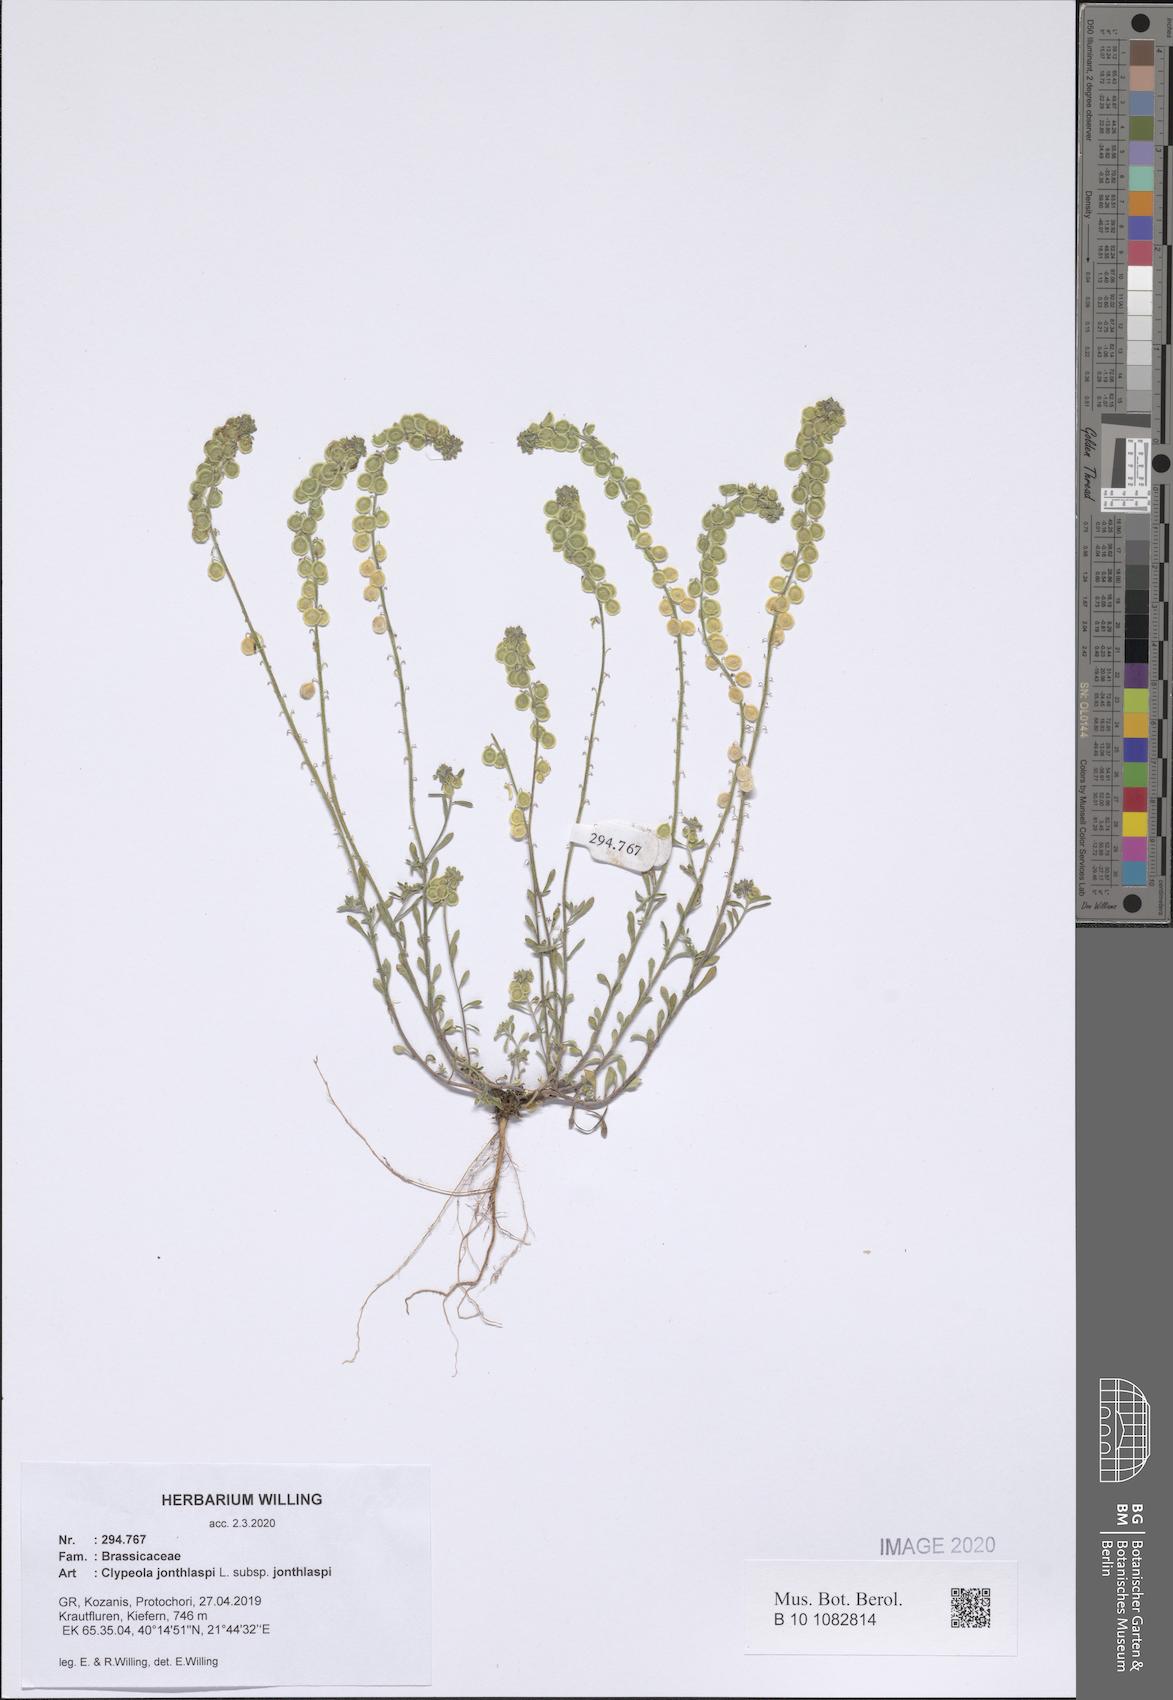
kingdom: Plantae
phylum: Tracheophyta
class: Magnoliopsida
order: Brassicales
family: Brassicaceae
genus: Clypeola
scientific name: Clypeola jonthlaspi
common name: Disk cress
